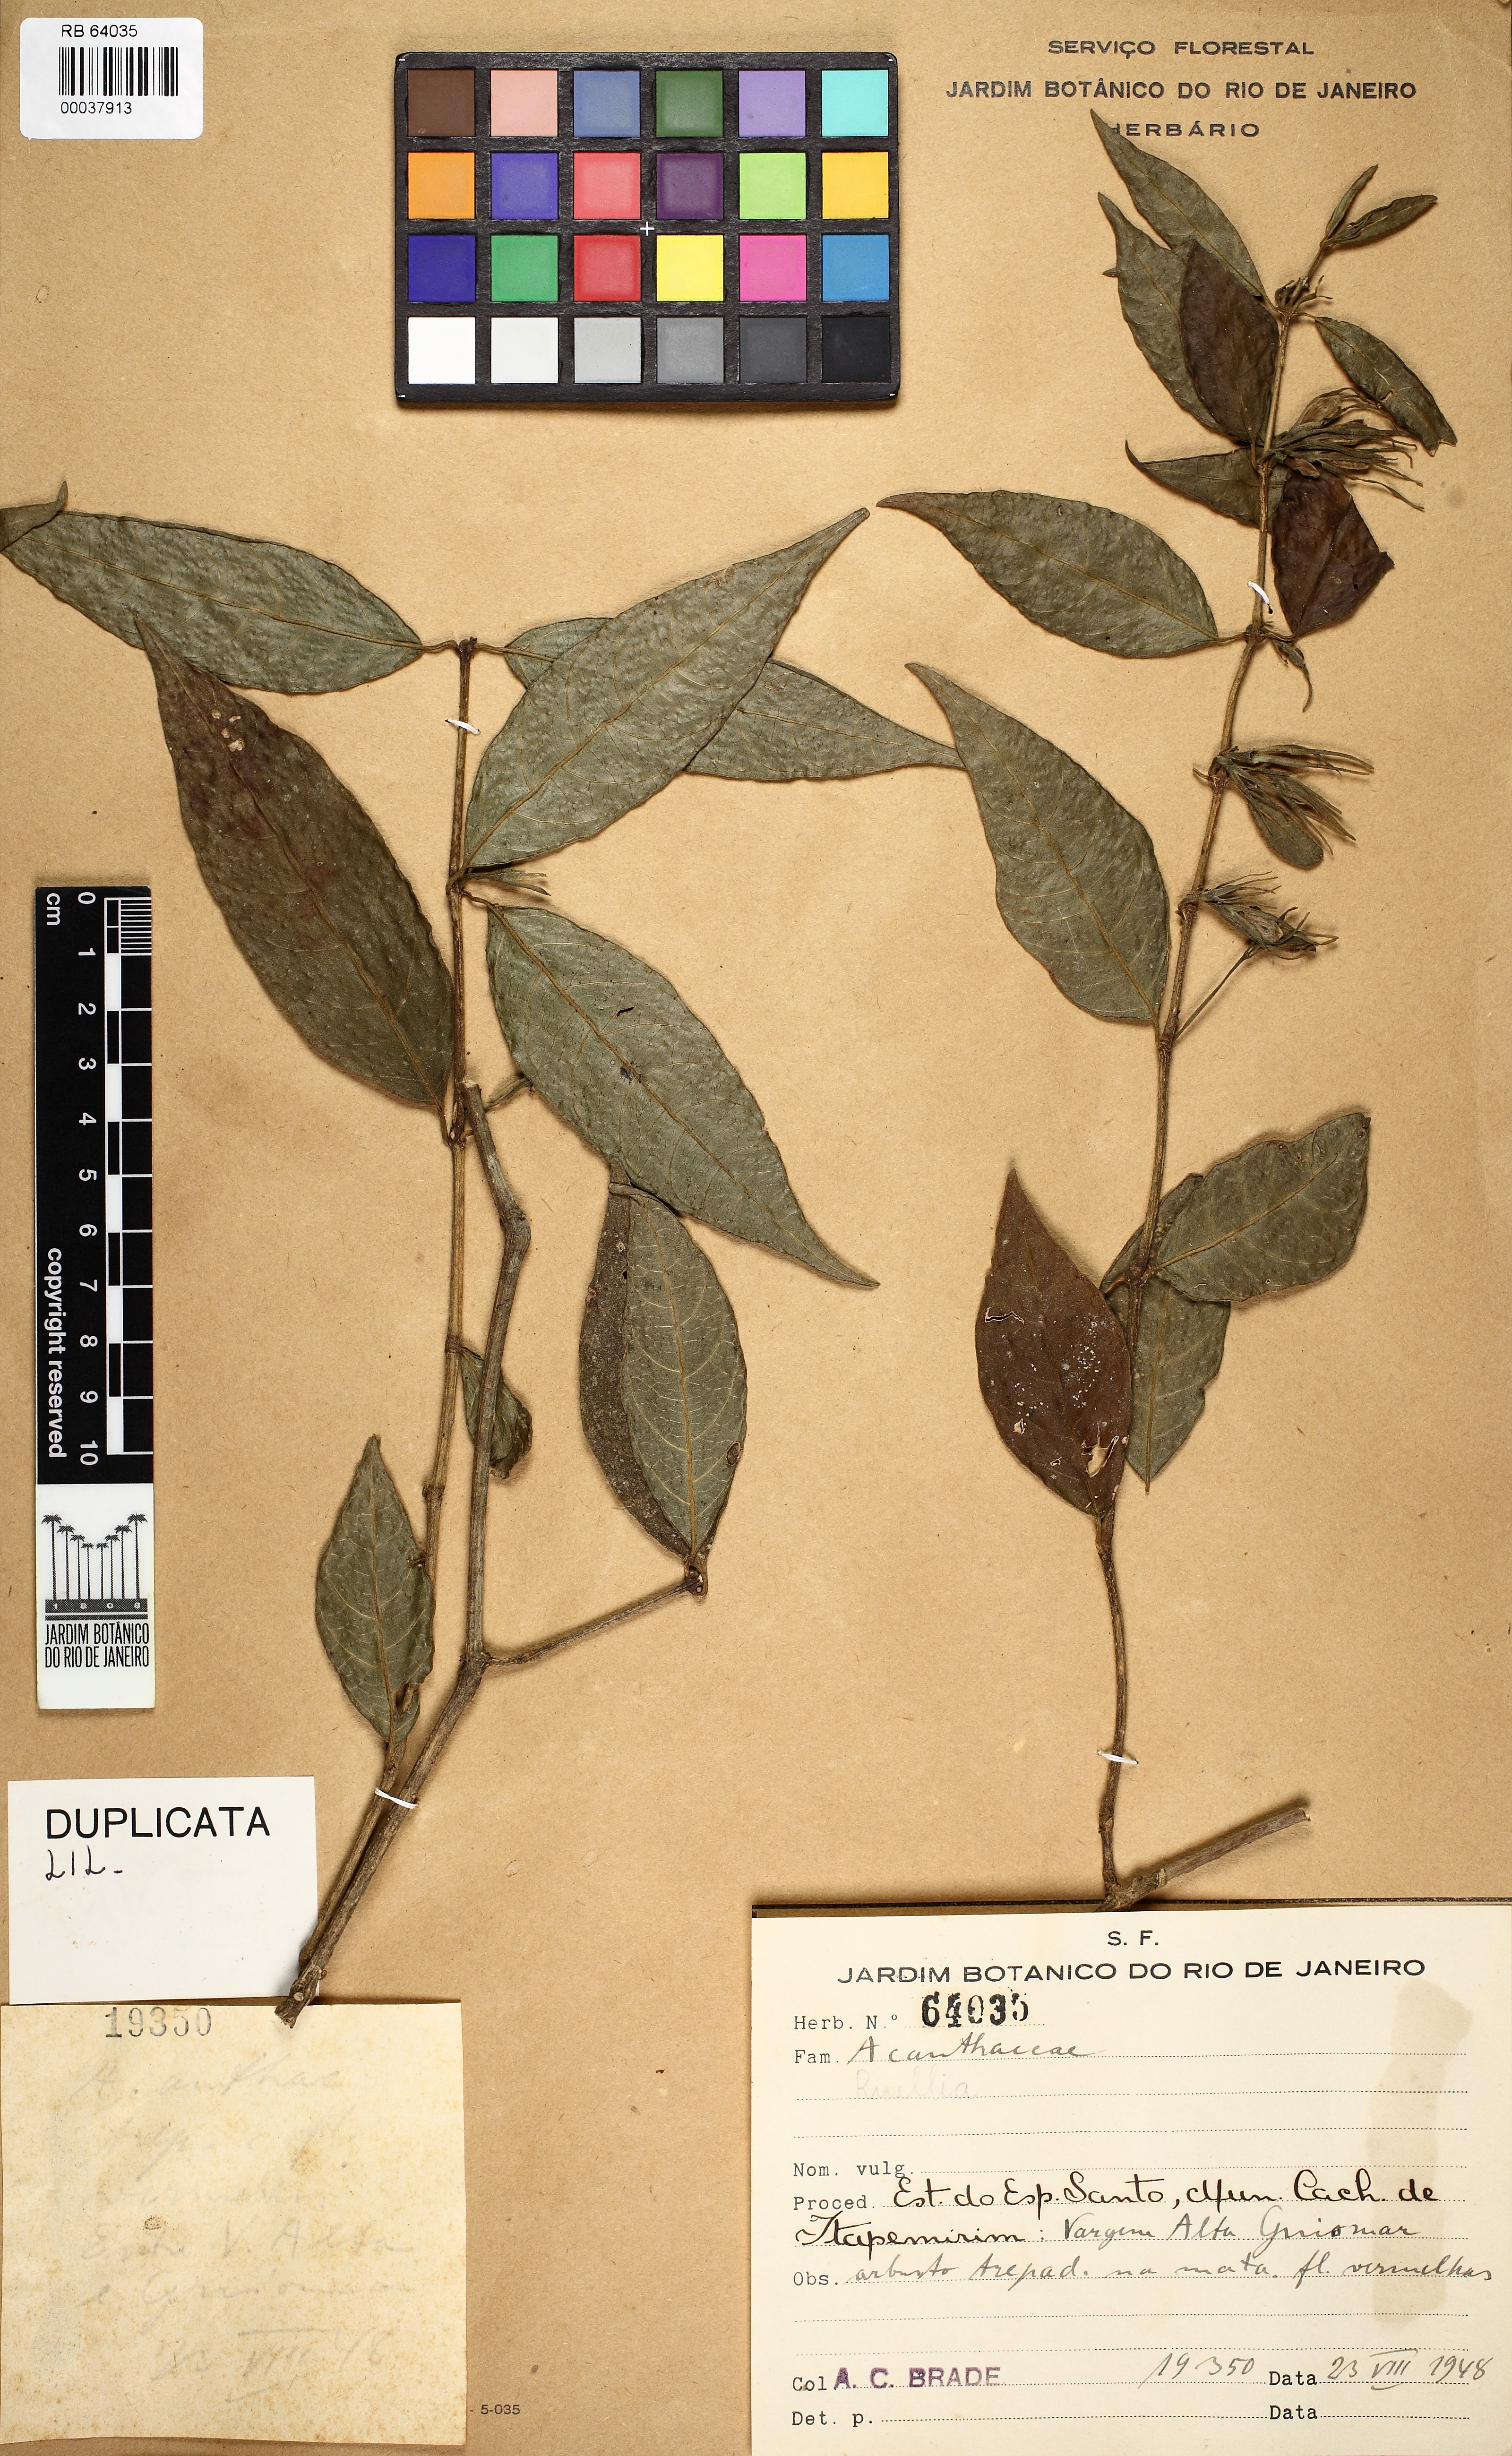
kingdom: Plantae
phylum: Tracheophyta
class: Magnoliopsida
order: Lamiales
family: Acanthaceae
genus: Ruellia
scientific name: Ruellia
